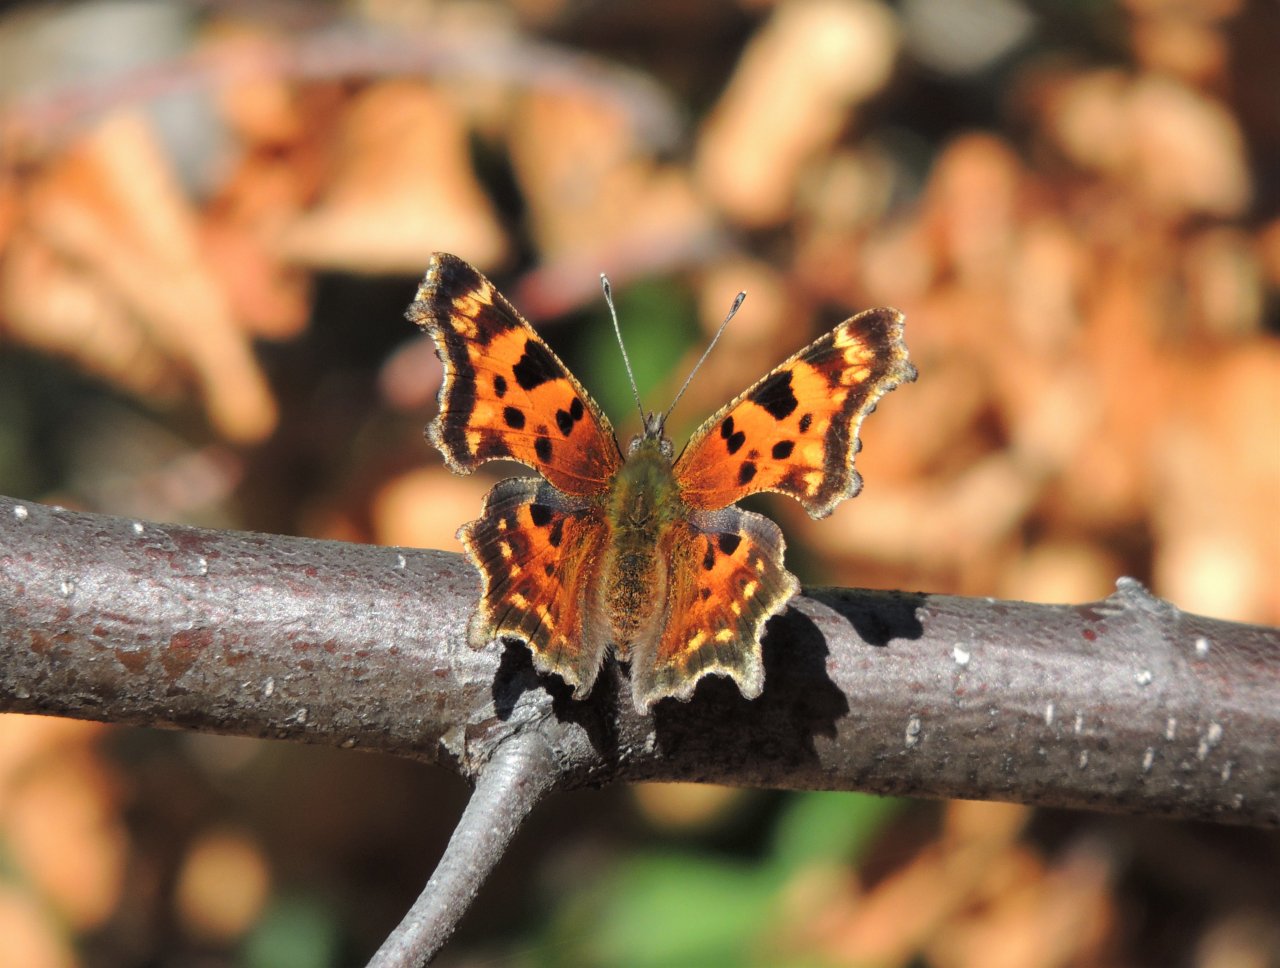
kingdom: Animalia
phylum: Arthropoda
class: Insecta
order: Lepidoptera
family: Nymphalidae
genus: Polygonia
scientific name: Polygonia faunus
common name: Green Comma
